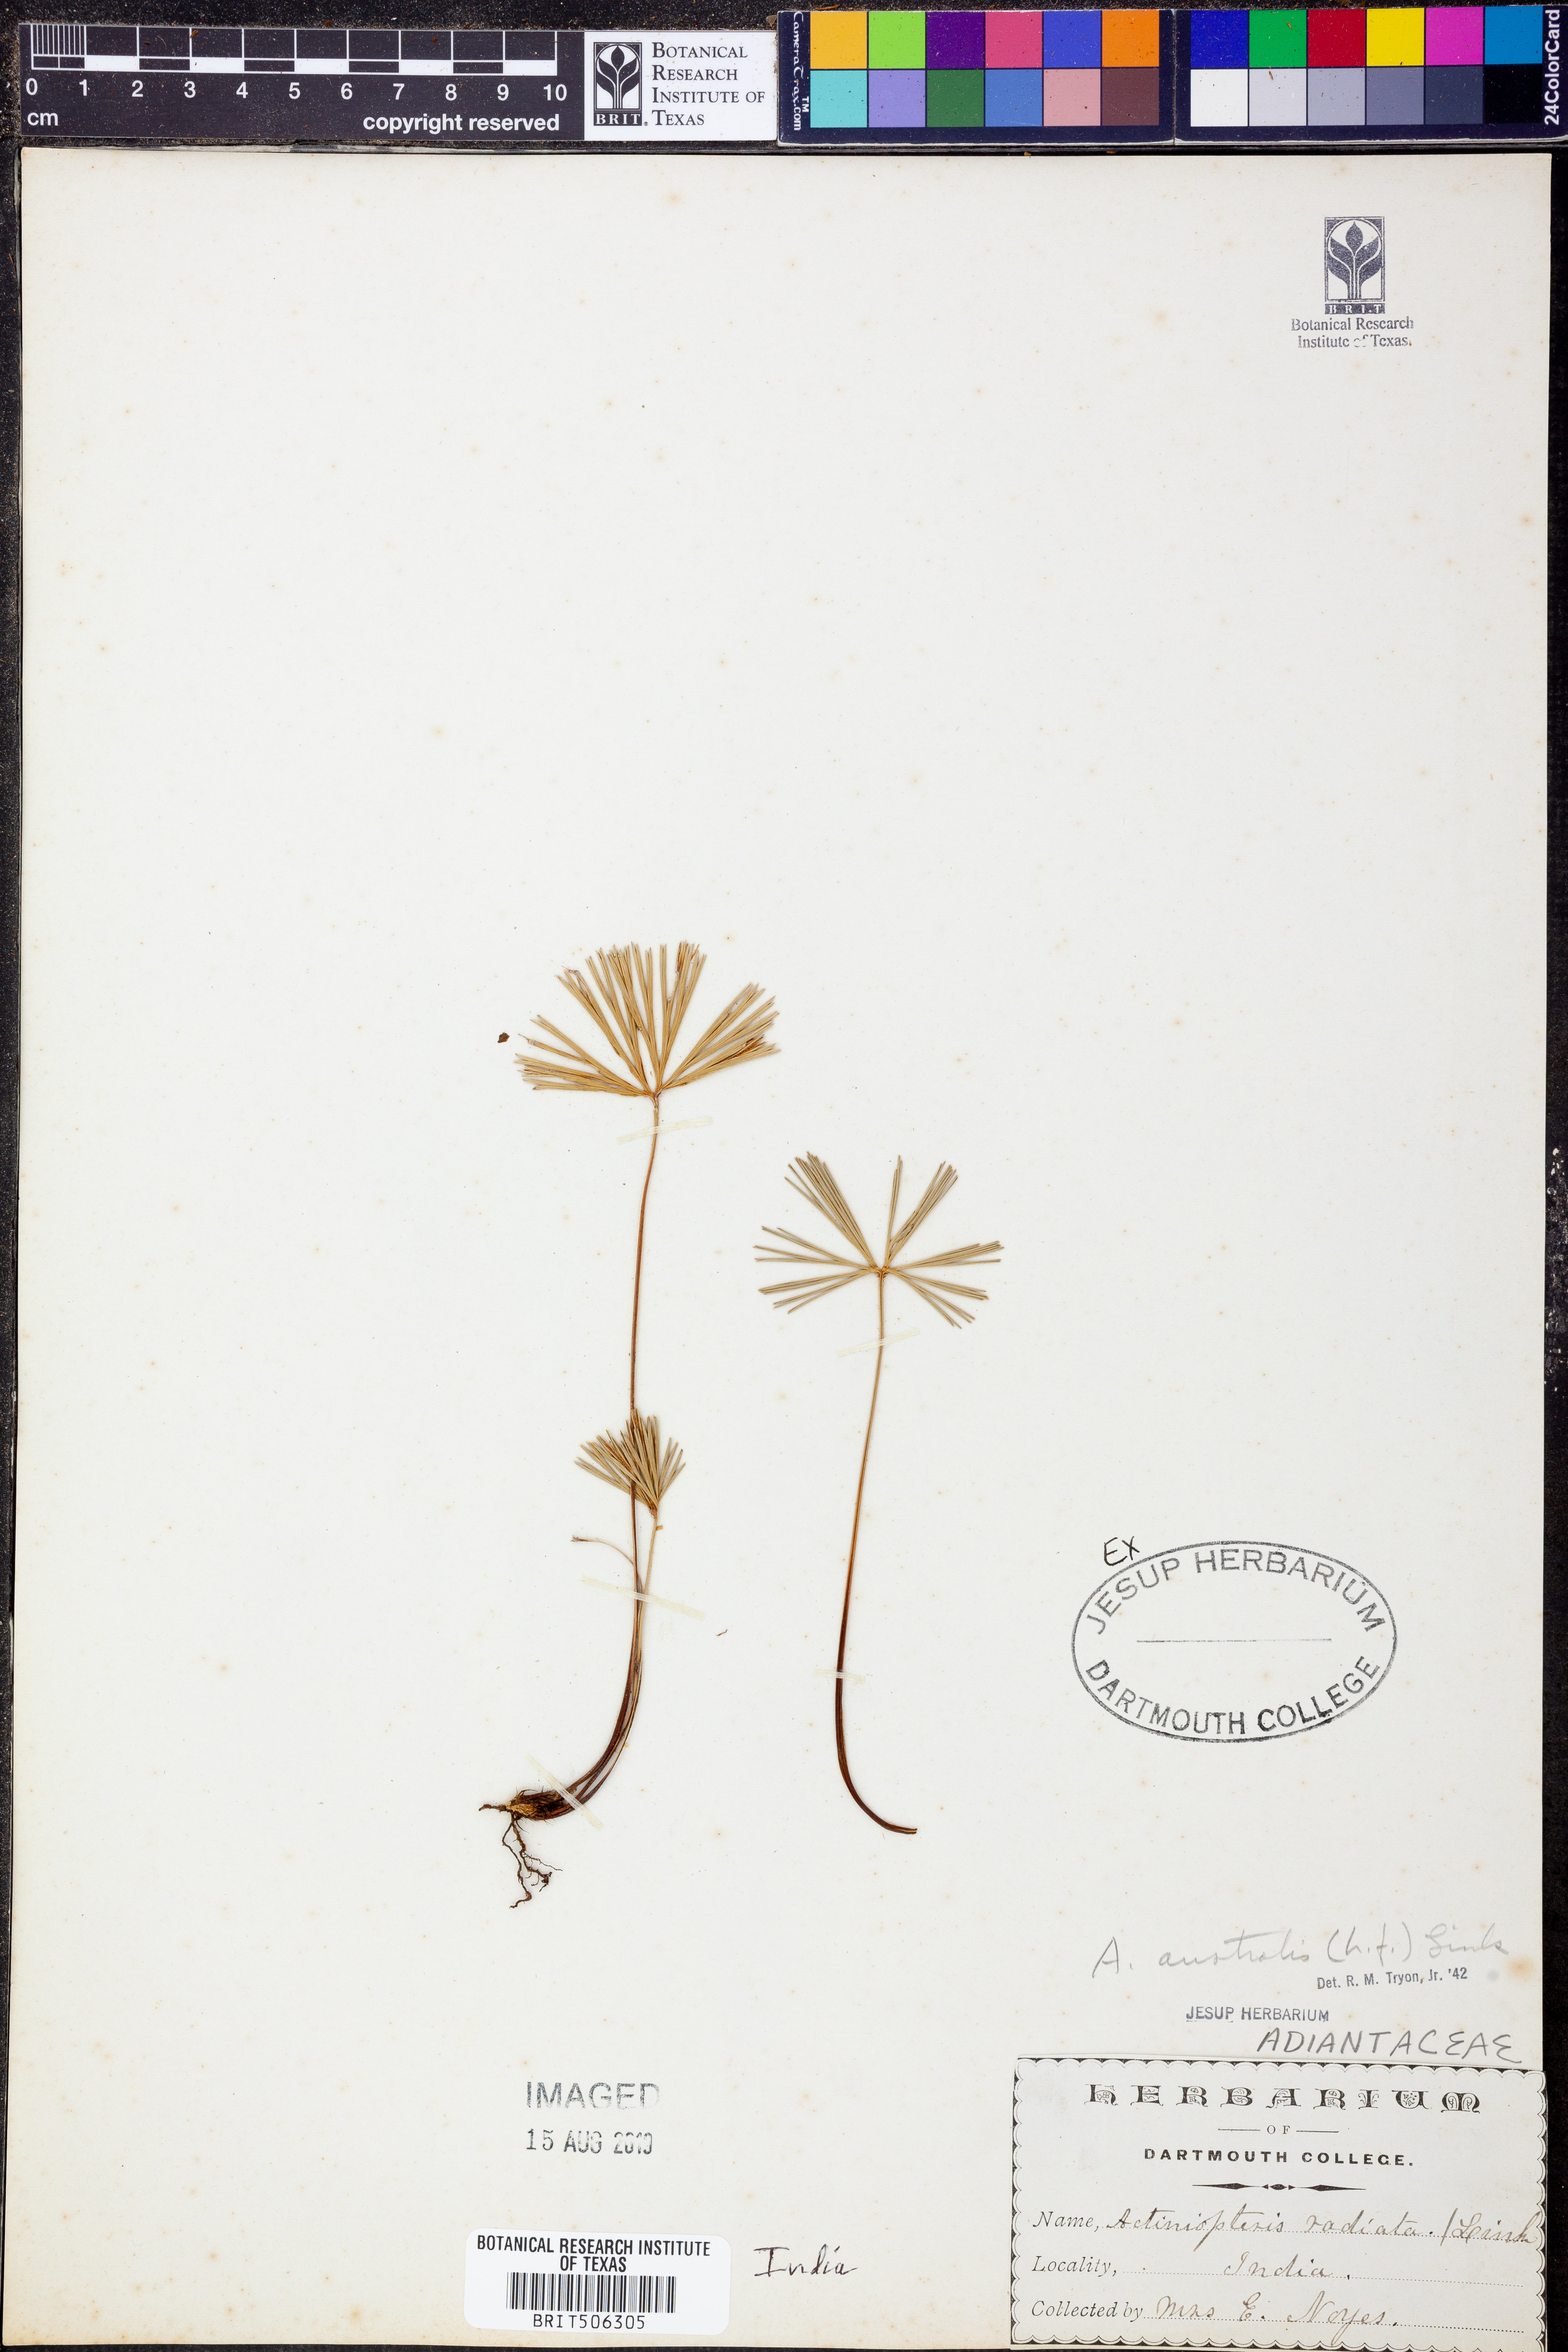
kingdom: Plantae
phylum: Tracheophyta
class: Polypodiopsida
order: Polypodiales
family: Pteridaceae
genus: Actiniopteris
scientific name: Actiniopteris australis
